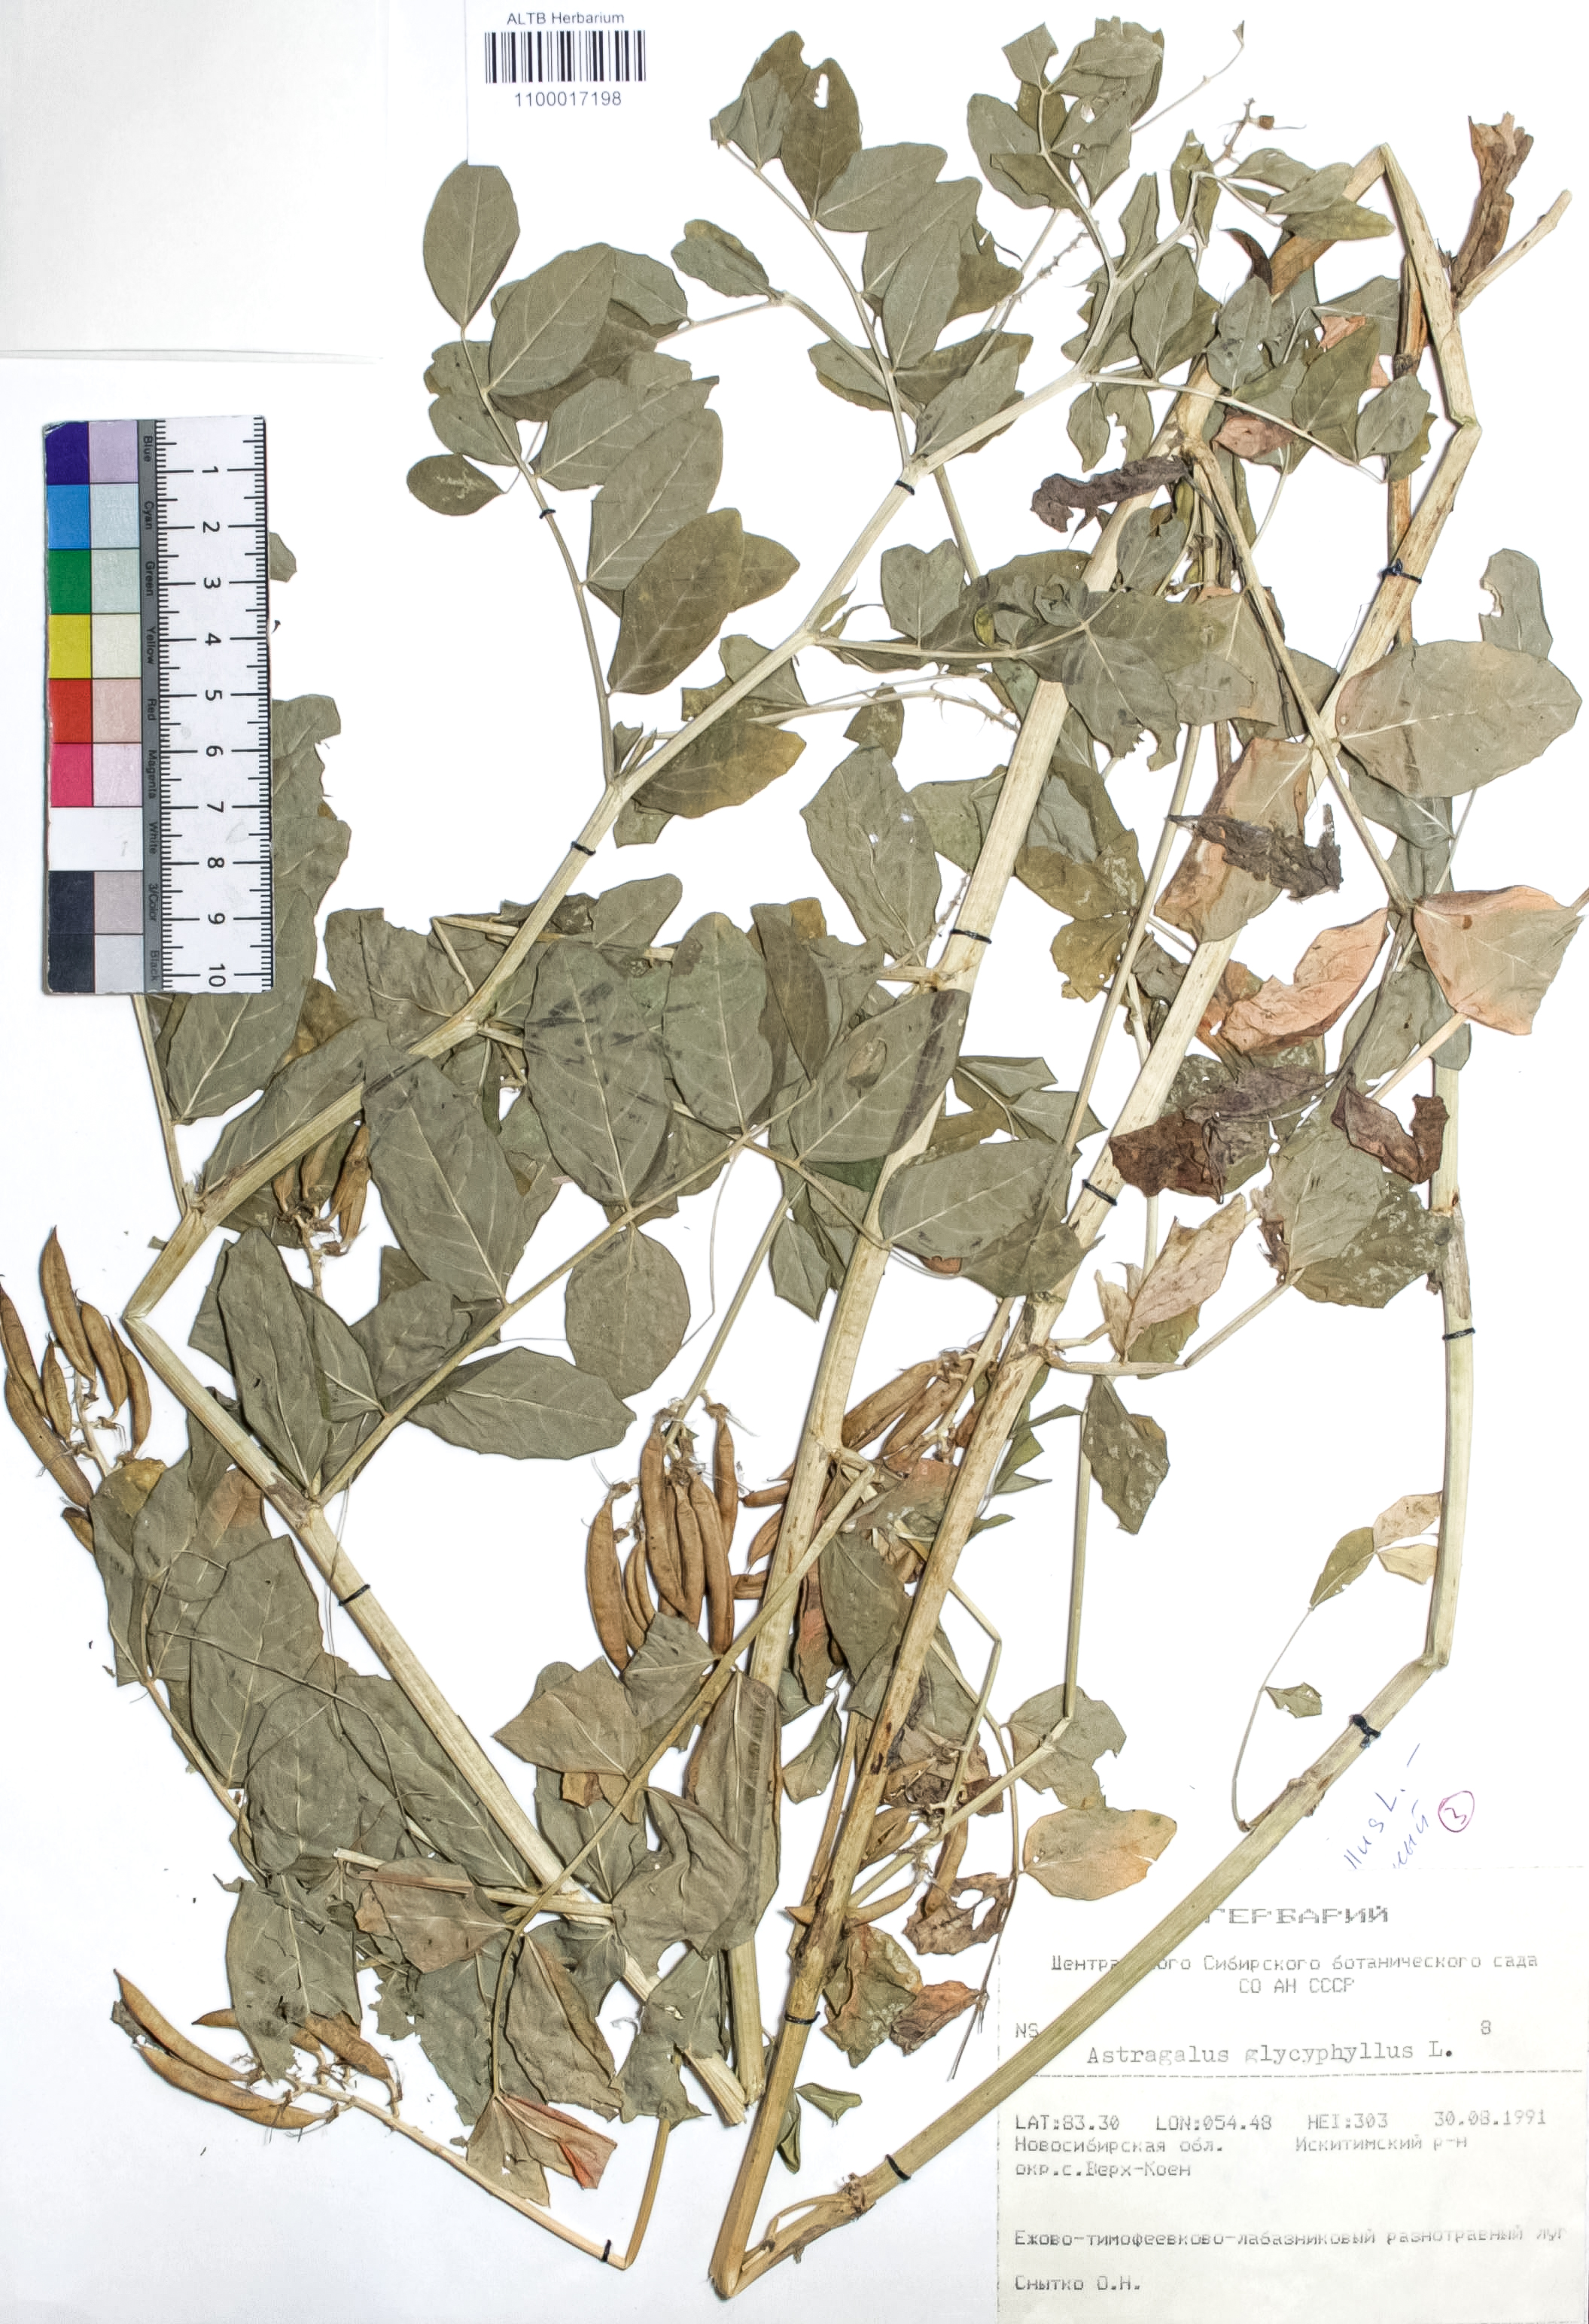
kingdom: Plantae
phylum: Tracheophyta
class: Magnoliopsida
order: Fabales
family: Fabaceae
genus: Astragalus
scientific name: Astragalus glycyphyllos
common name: Wild liquorice
